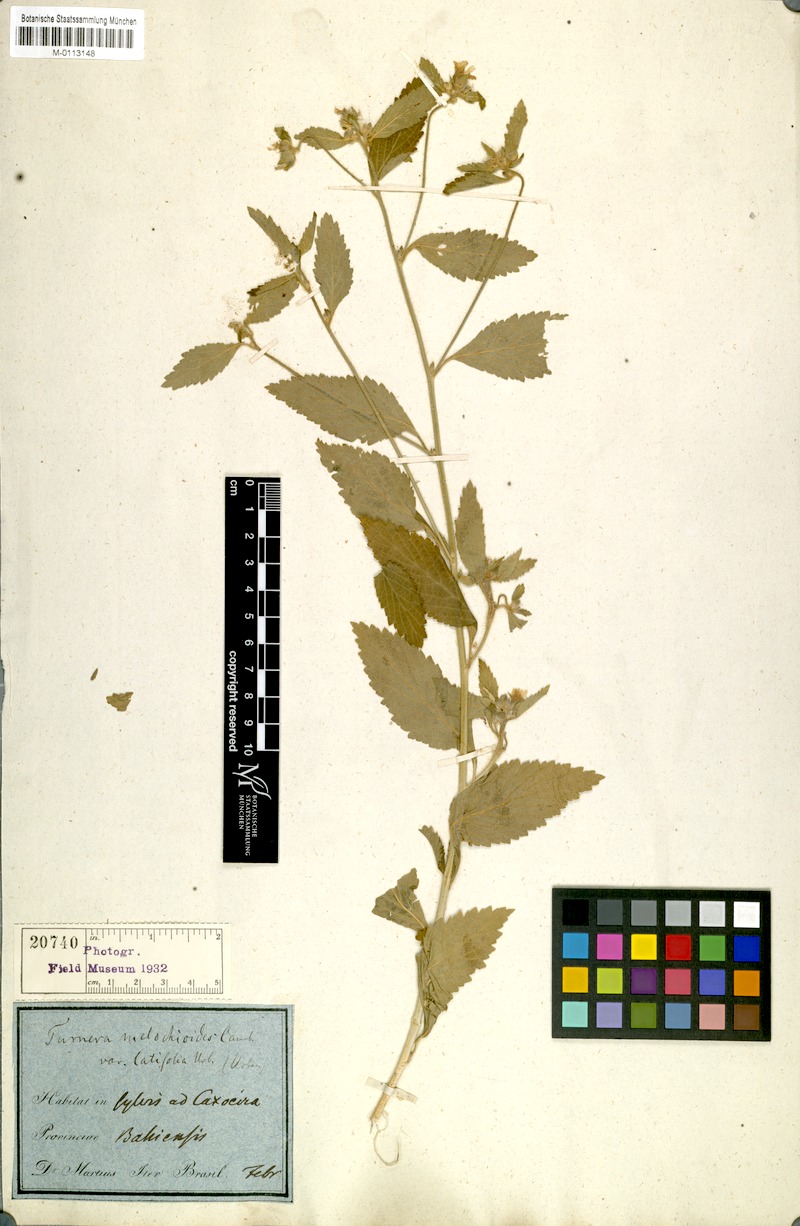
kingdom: Plantae
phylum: Tracheophyta
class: Magnoliopsida
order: Malpighiales
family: Turneraceae
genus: Turnera
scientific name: Turnera arenaria
